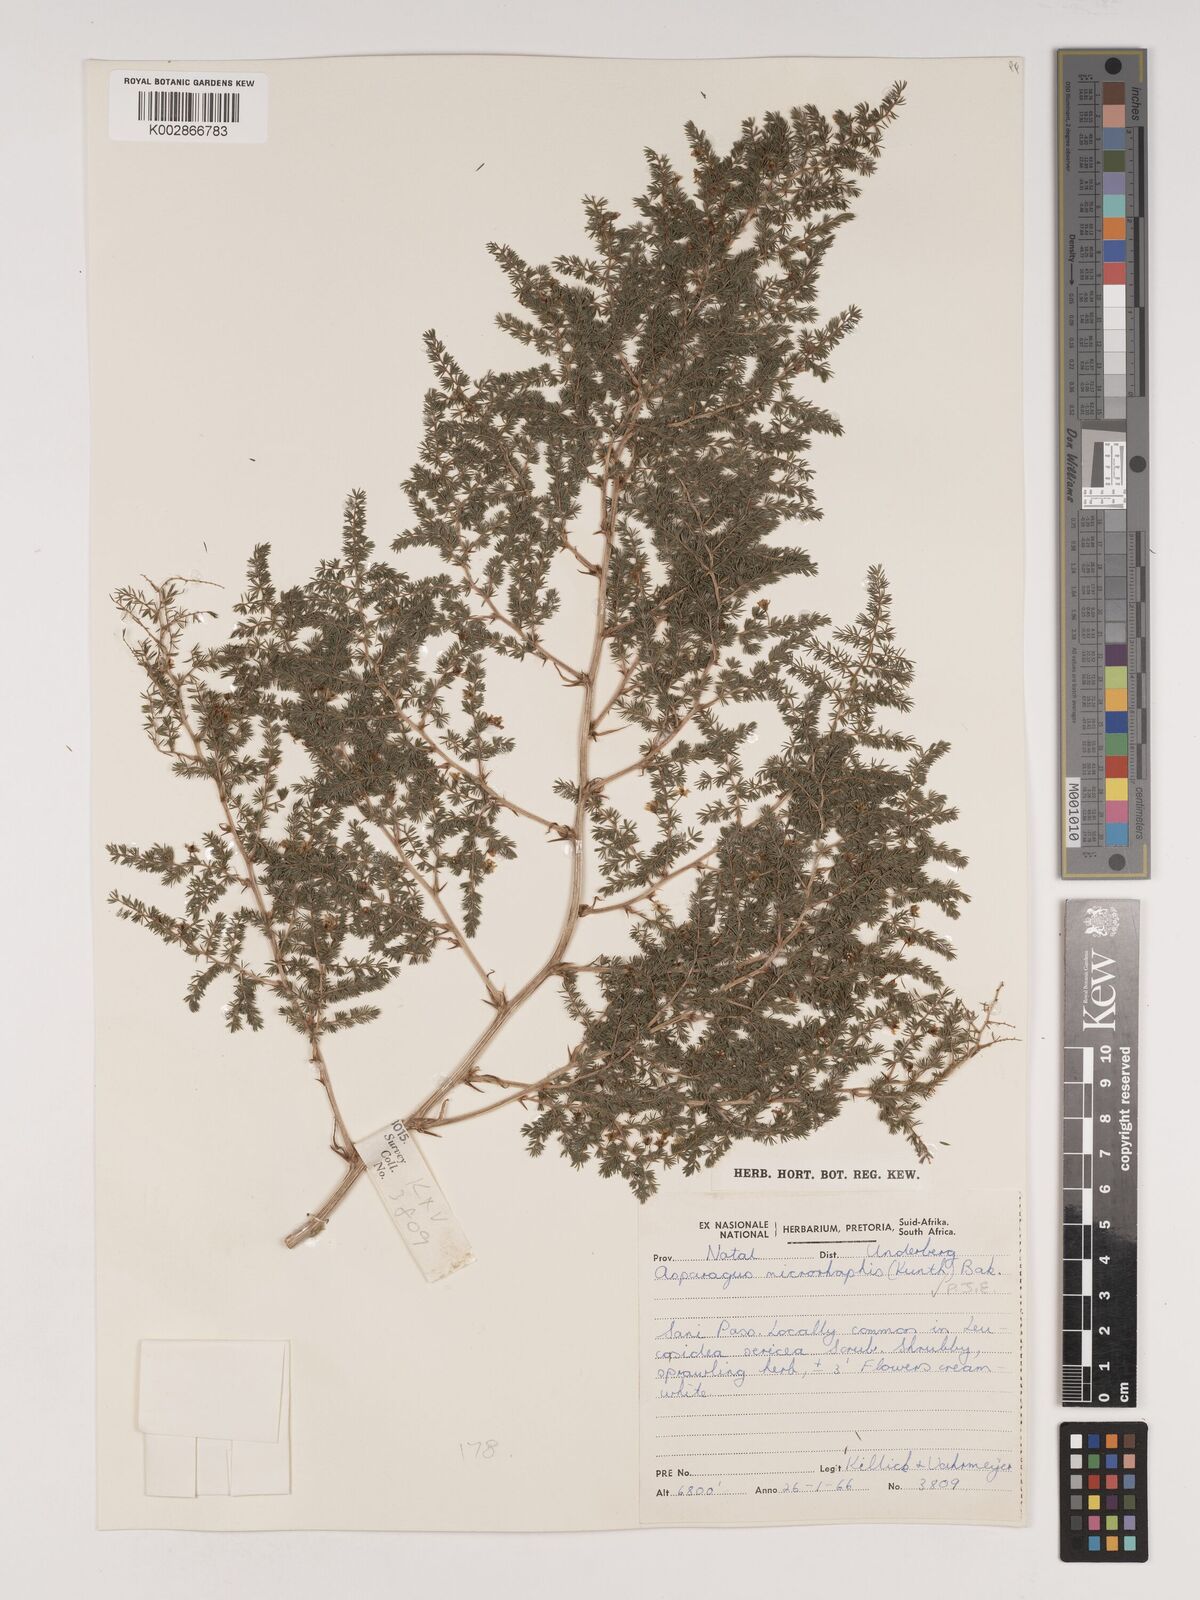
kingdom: Plantae
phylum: Tracheophyta
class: Liliopsida
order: Asparagales
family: Asparagaceae
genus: Asparagus
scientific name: Asparagus microraphis
